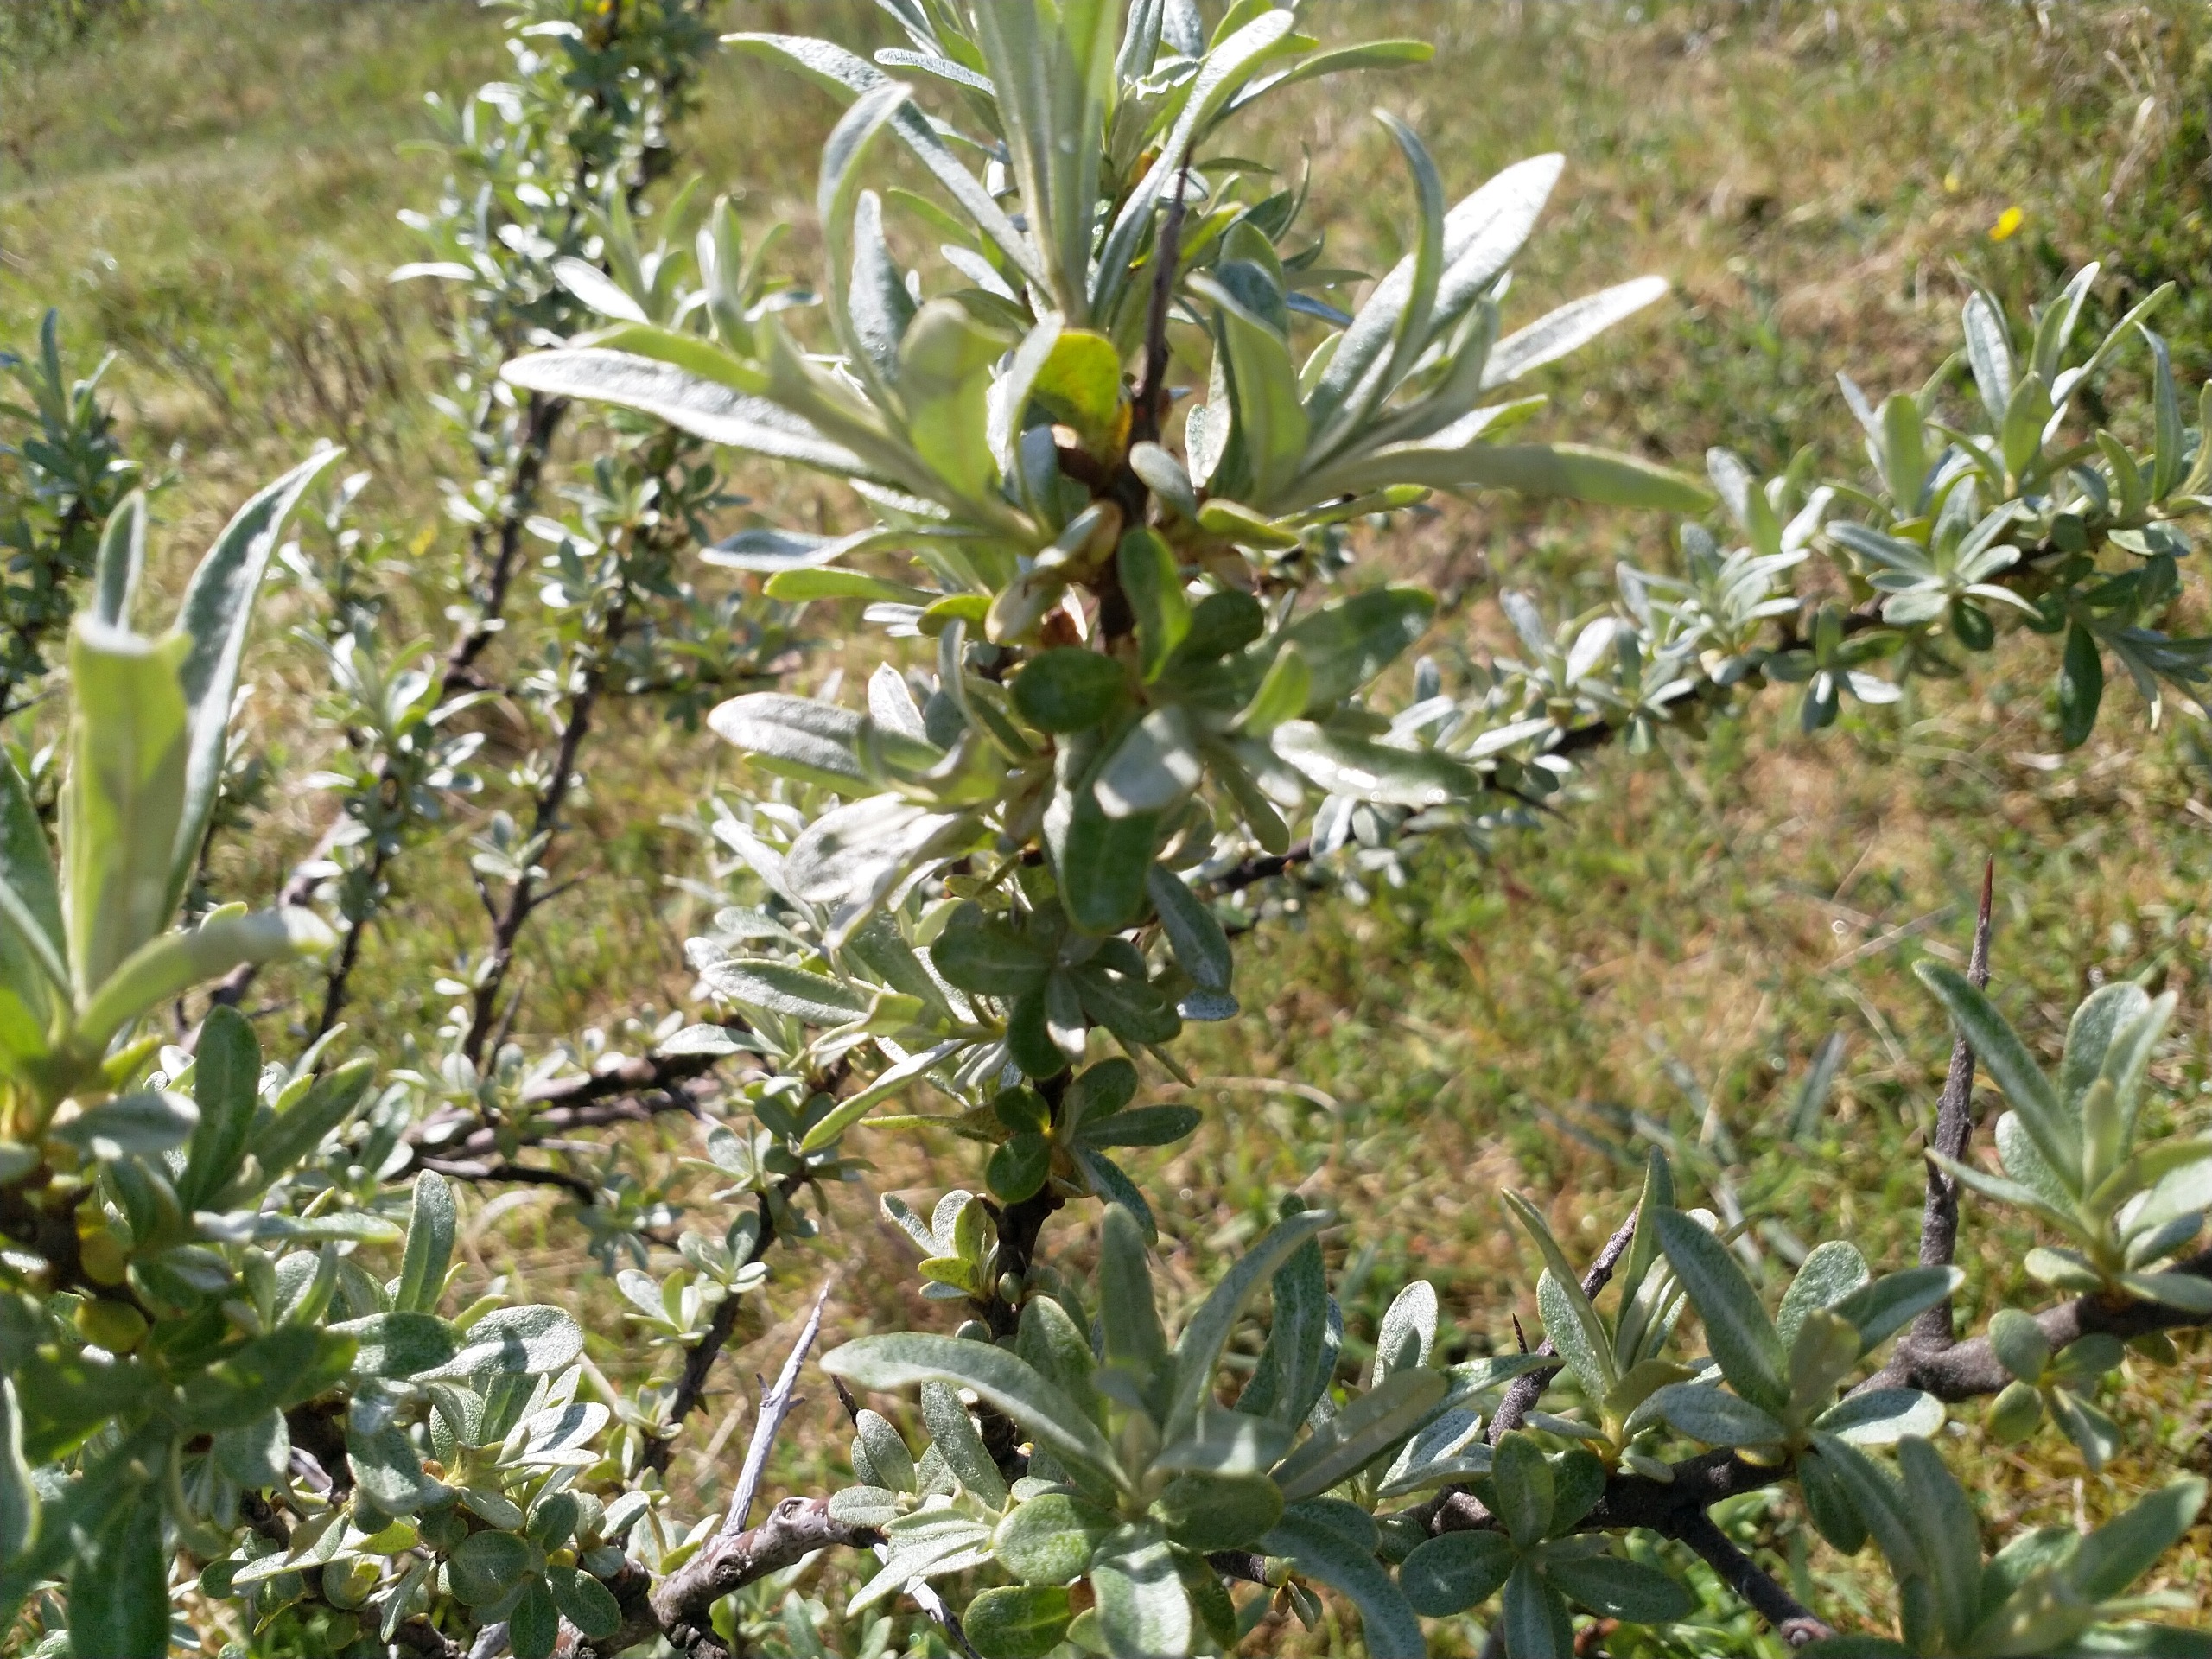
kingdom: Plantae
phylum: Tracheophyta
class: Magnoliopsida
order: Rosales
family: Elaeagnaceae
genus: Hippophae
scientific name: Hippophae rhamnoides
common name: Havtorn
